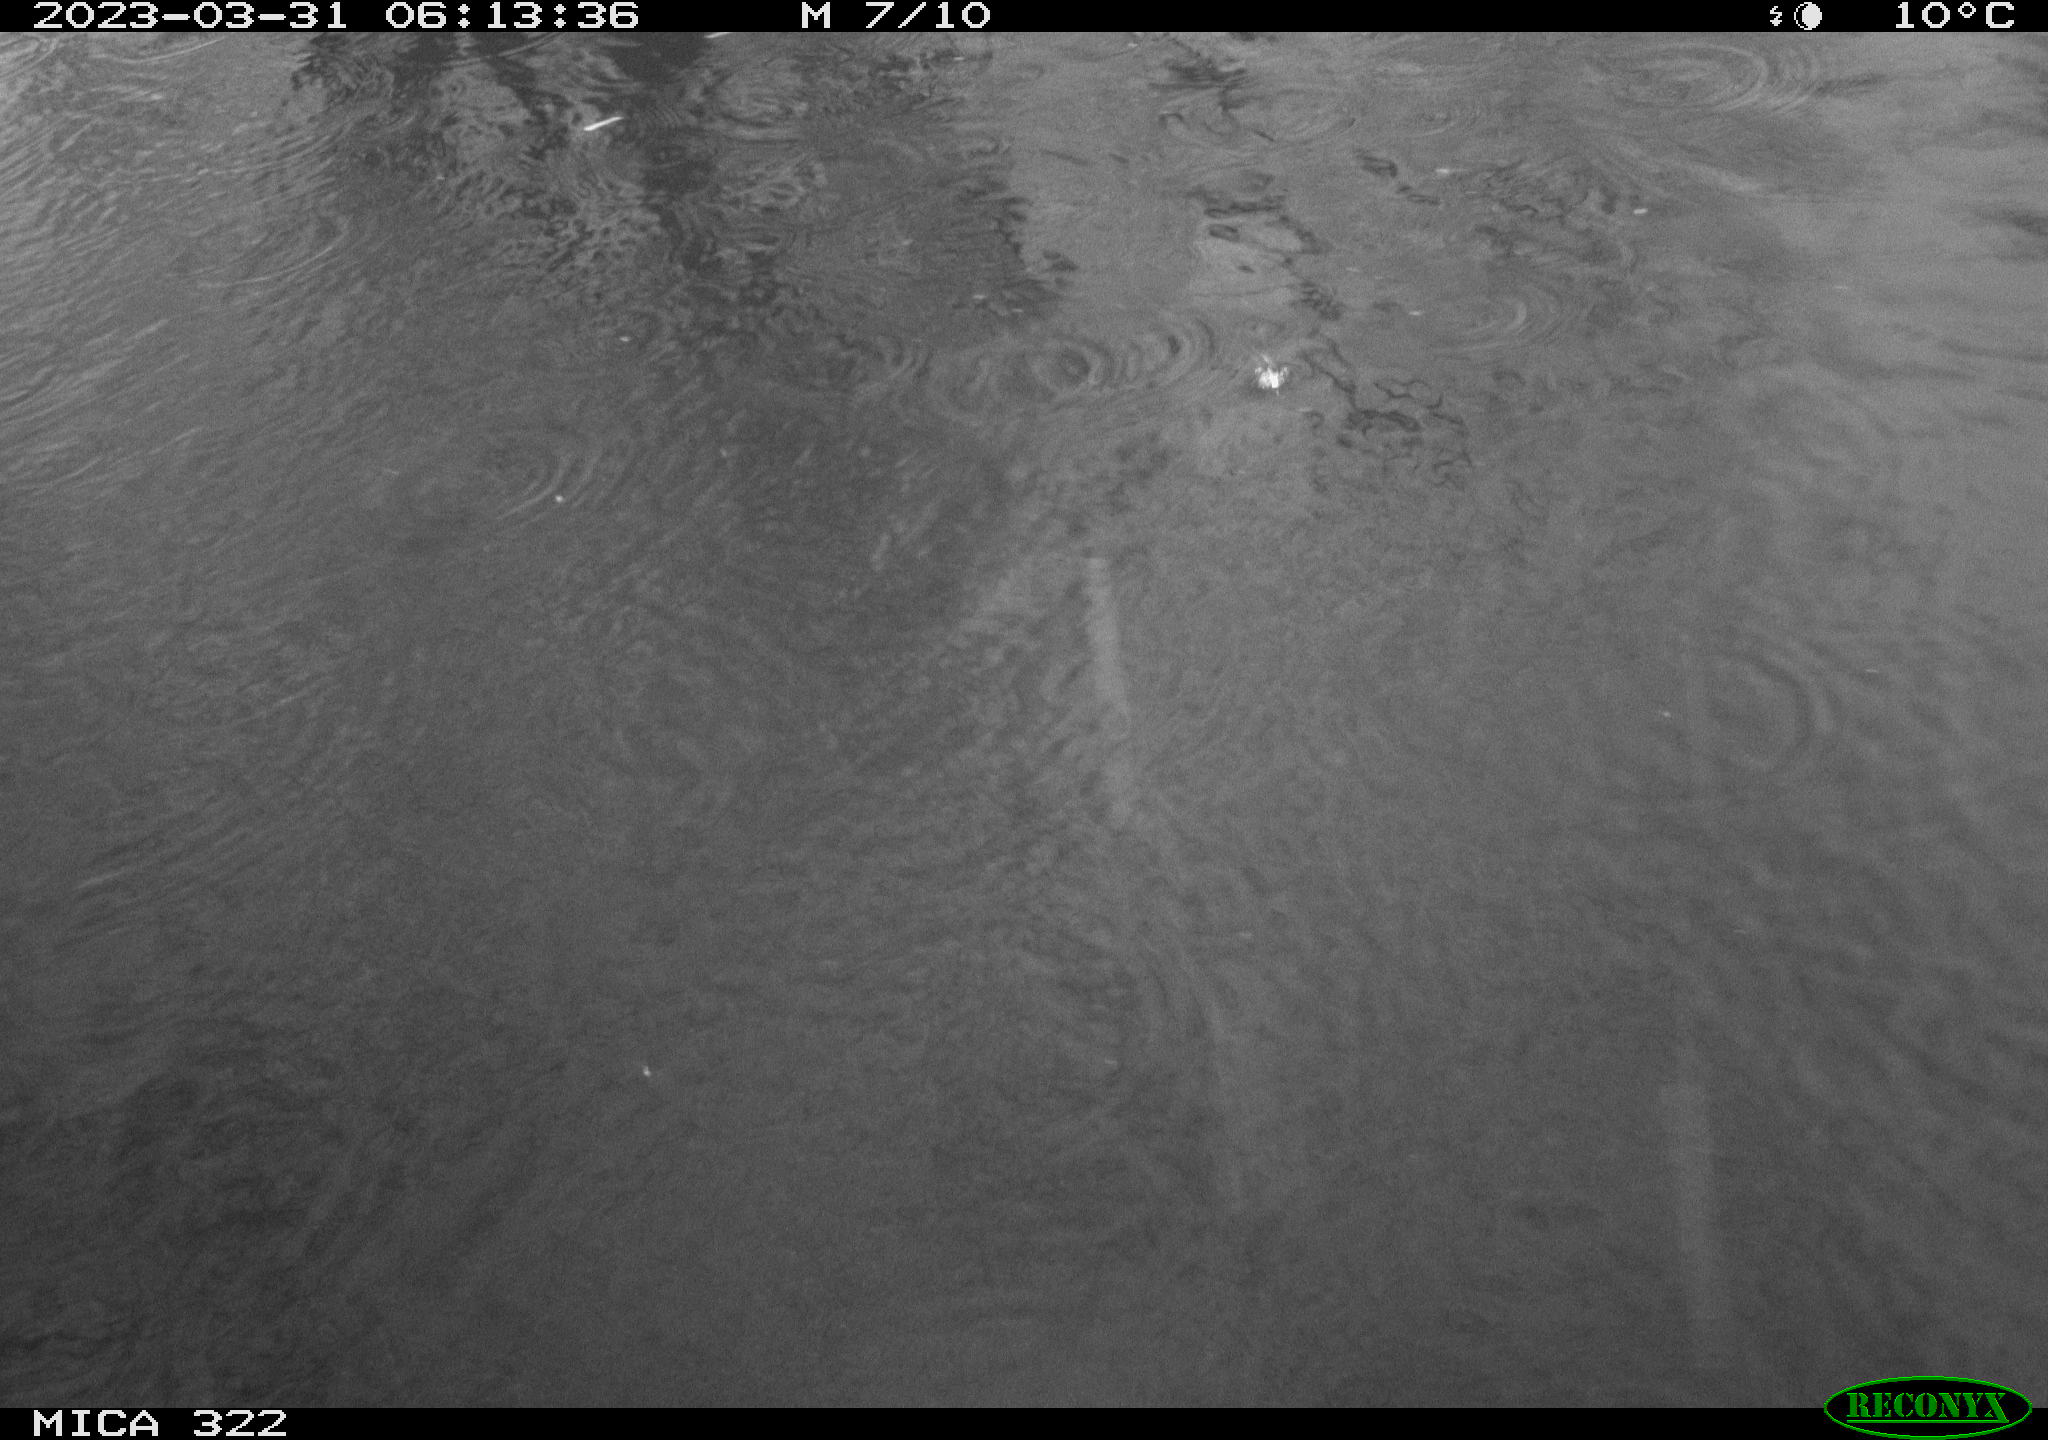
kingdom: Animalia
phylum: Chordata
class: Aves
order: Gruiformes
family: Rallidae
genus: Fulica
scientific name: Fulica atra
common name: Eurasian coot
